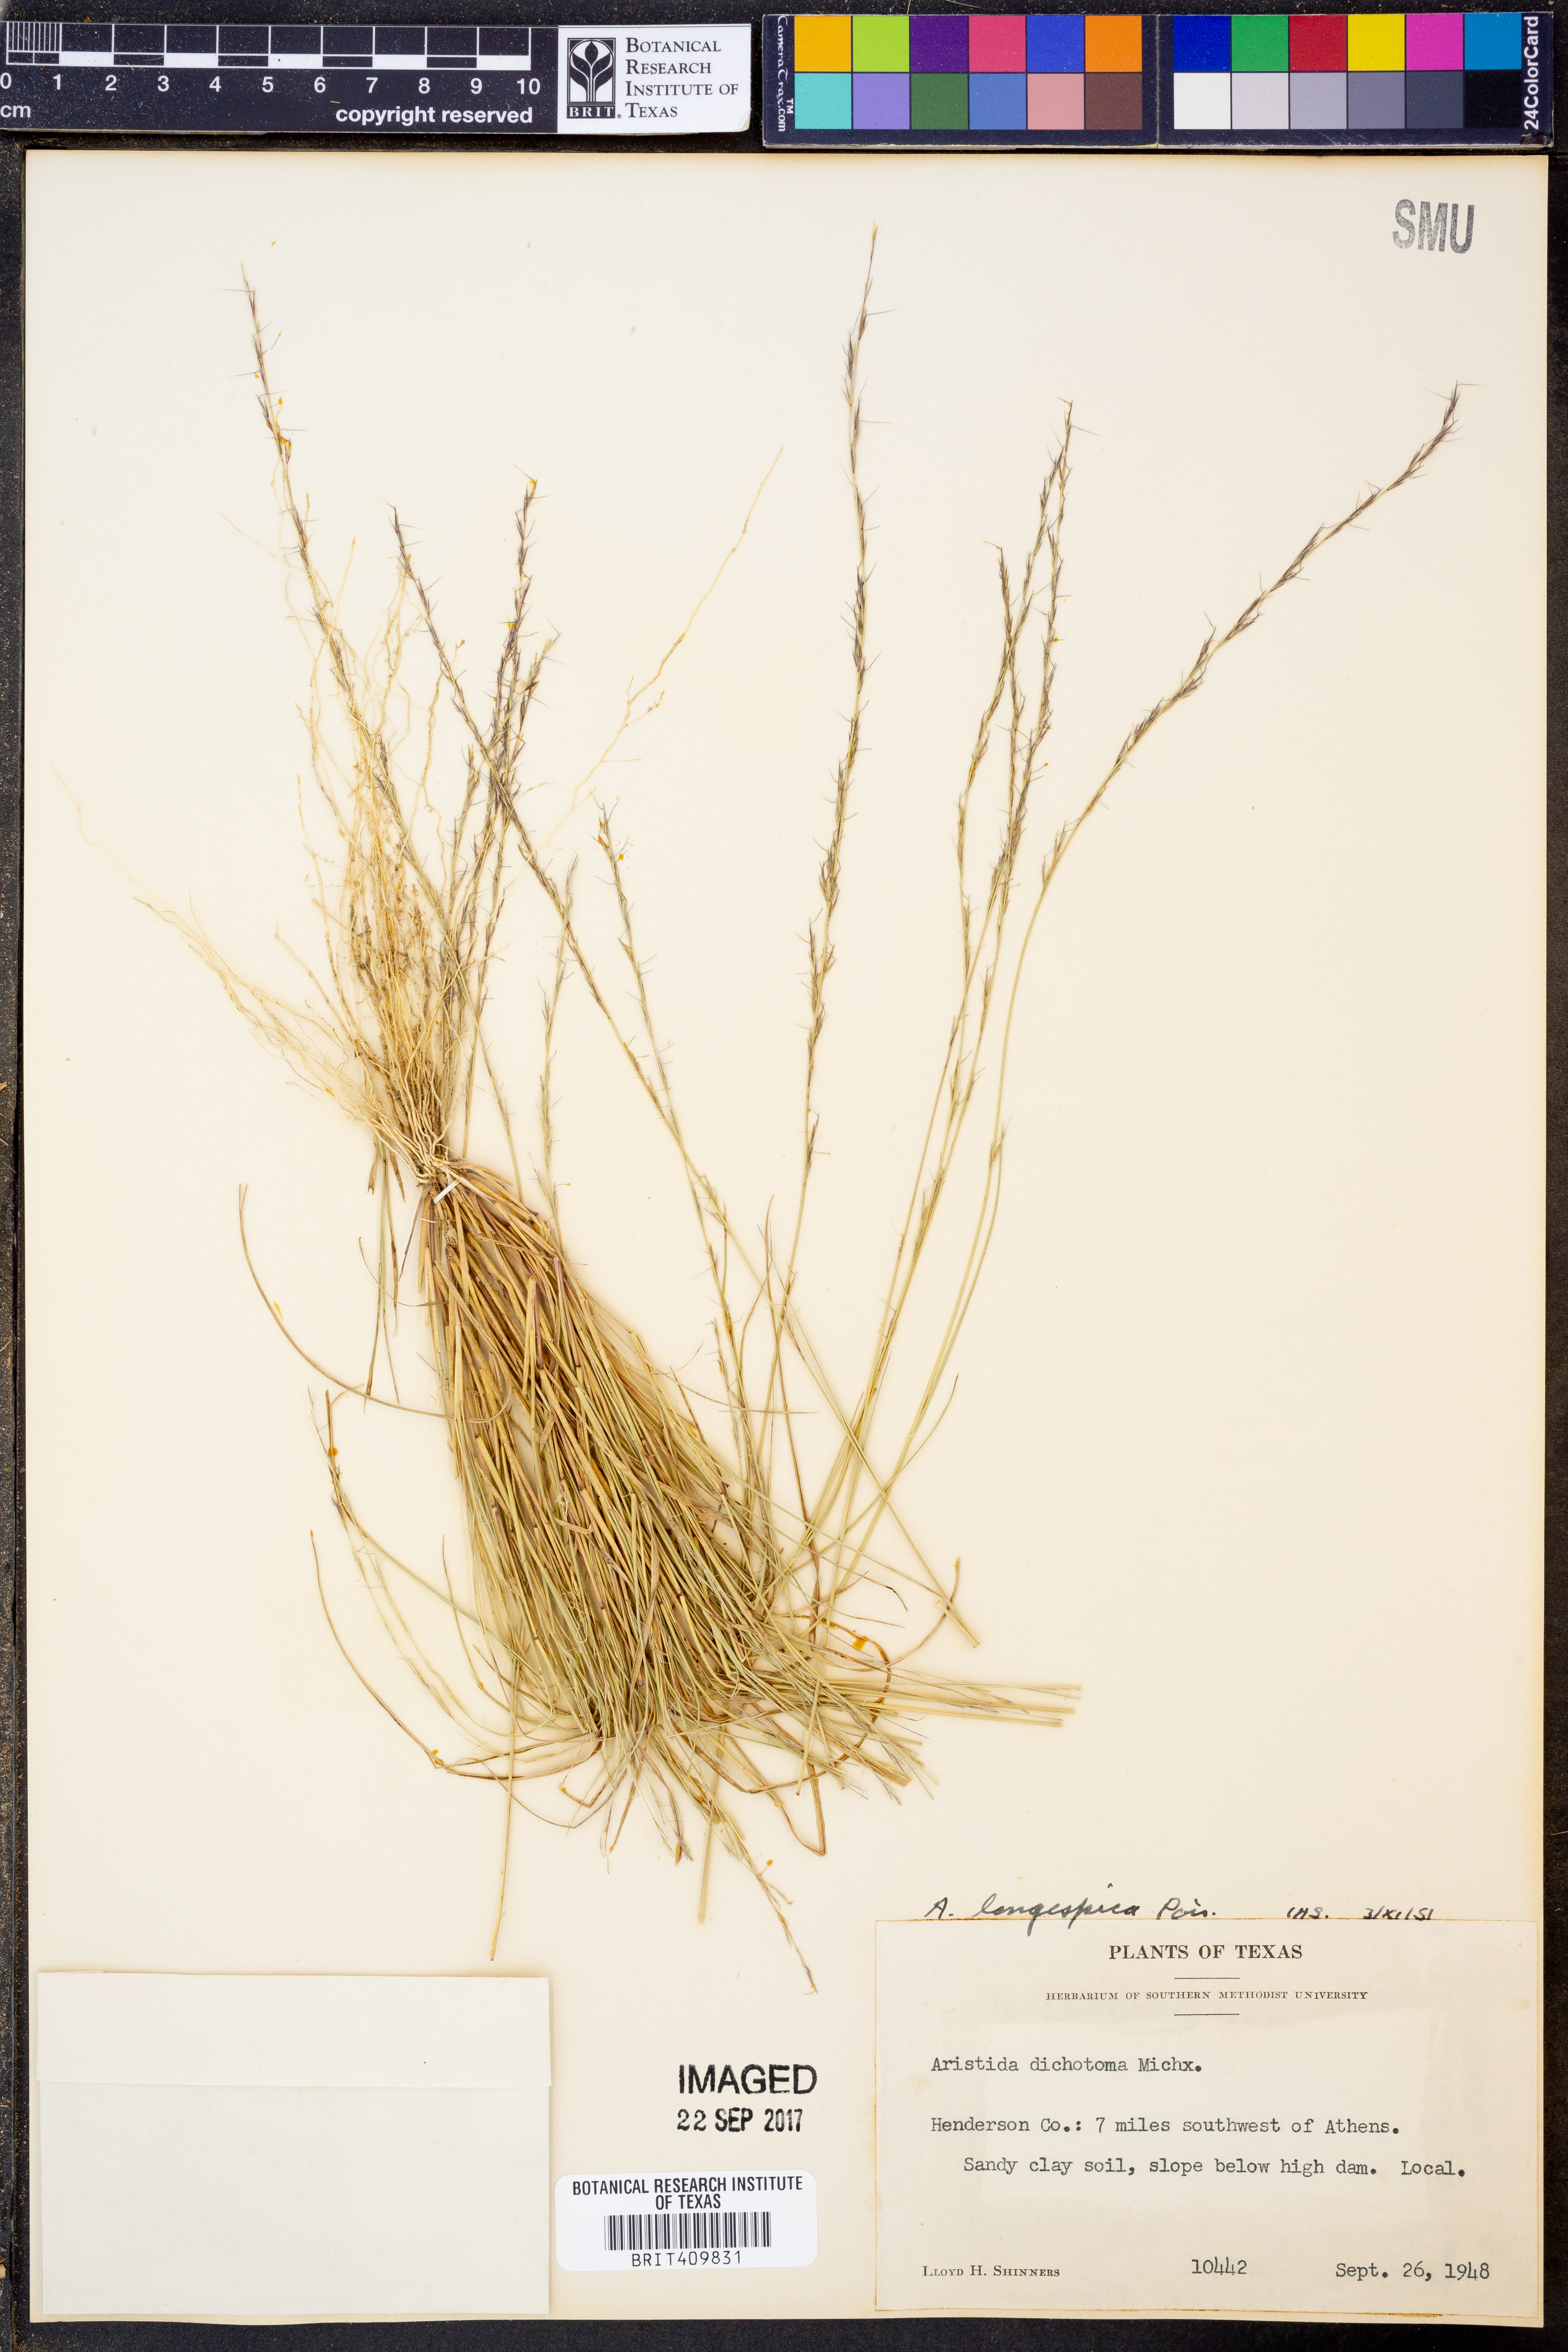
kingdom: Plantae
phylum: Tracheophyta
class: Liliopsida
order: Poales
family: Poaceae
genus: Aristida
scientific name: Aristida longespica
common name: Long-spiked triple-awned grass
